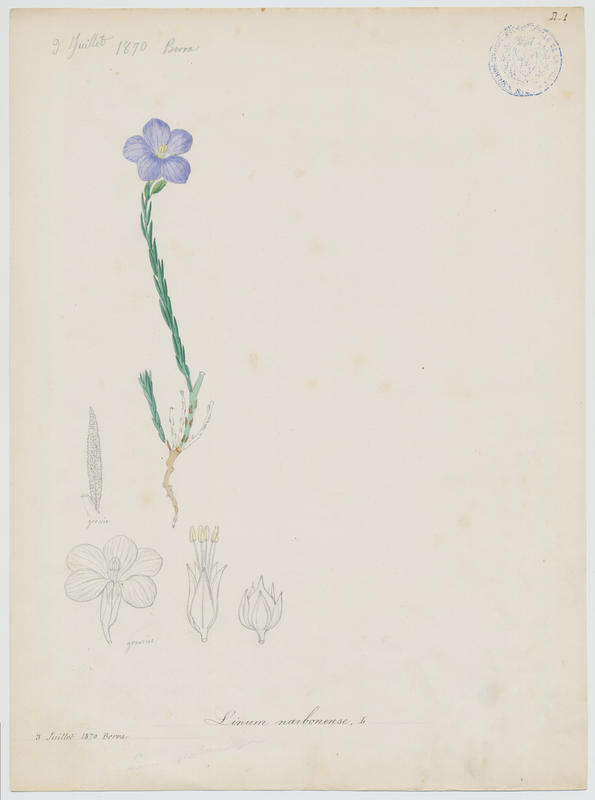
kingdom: Plantae
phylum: Tracheophyta
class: Magnoliopsida
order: Malpighiales
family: Linaceae
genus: Linum
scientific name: Linum narbonense
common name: Flax
